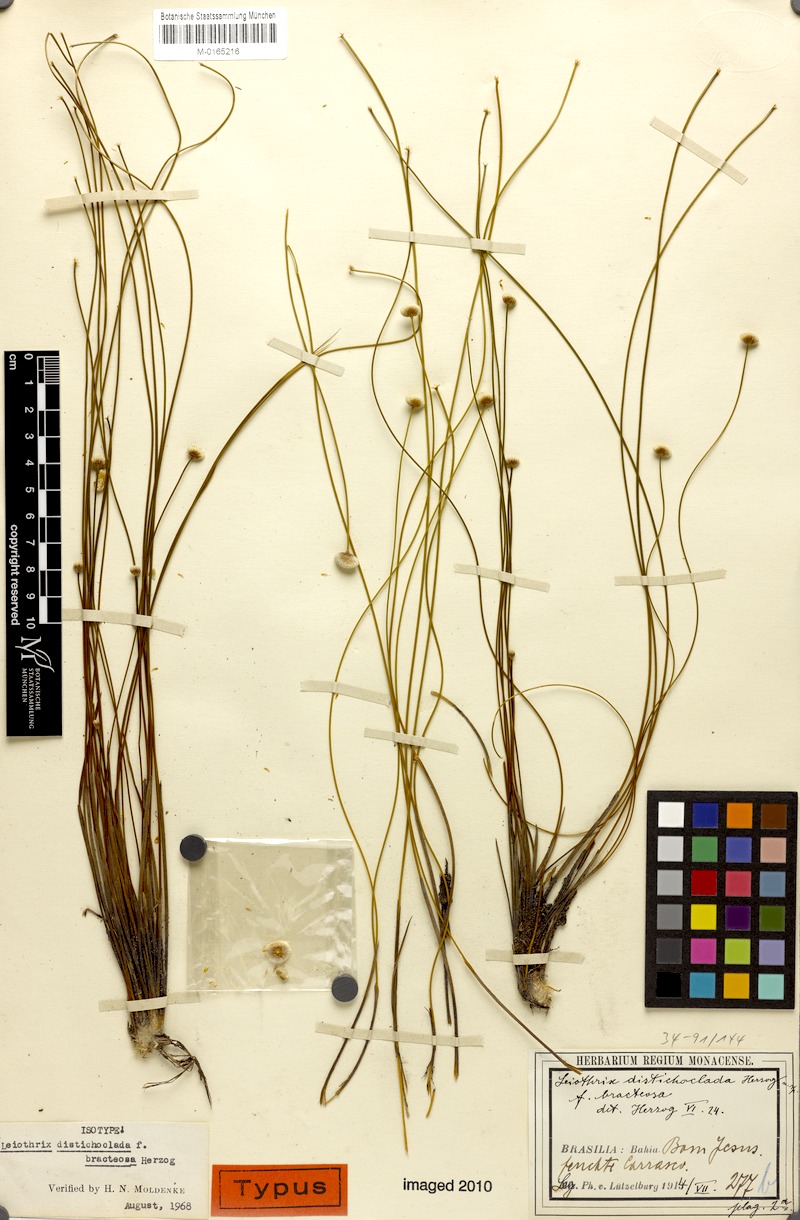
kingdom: Plantae
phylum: Tracheophyta
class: Liliopsida
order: Poales
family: Eriocaulaceae
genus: Leiothrix
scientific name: Leiothrix distichoclada
